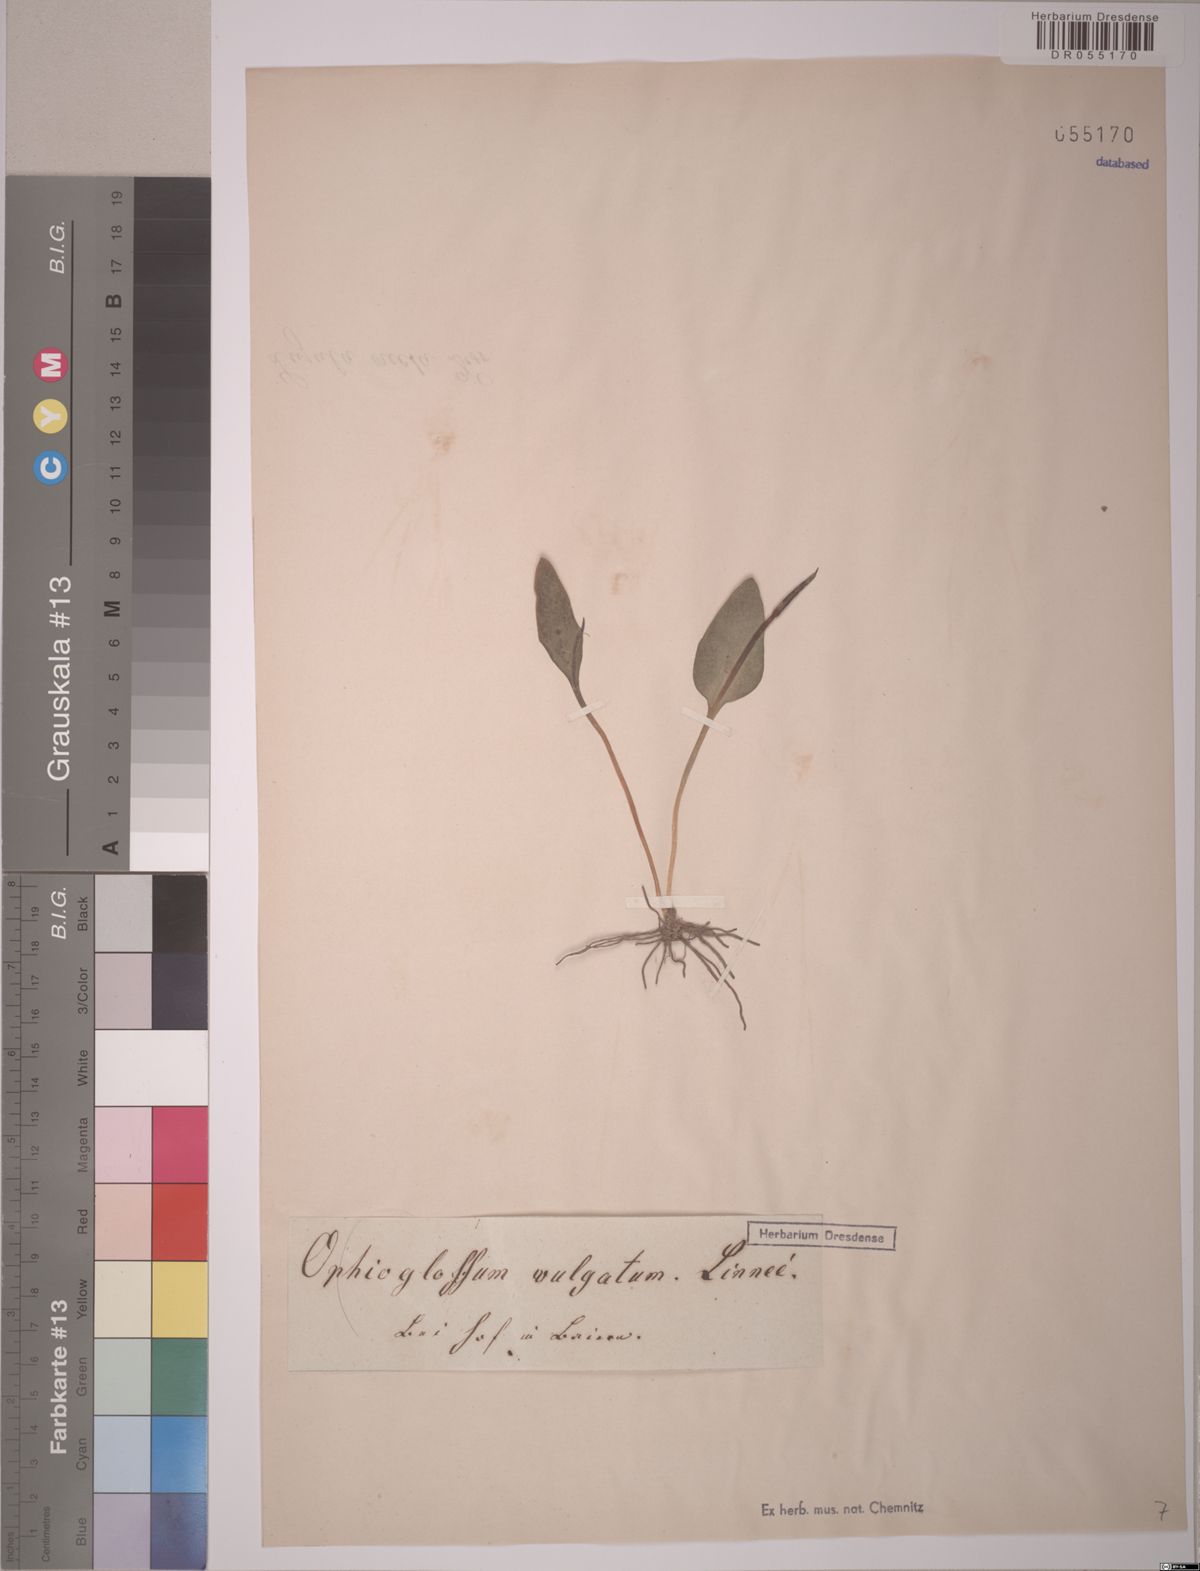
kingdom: Plantae
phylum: Tracheophyta
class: Polypodiopsida
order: Ophioglossales
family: Ophioglossaceae
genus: Ophioglossum
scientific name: Ophioglossum vulgatum
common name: Adder's-tongue
